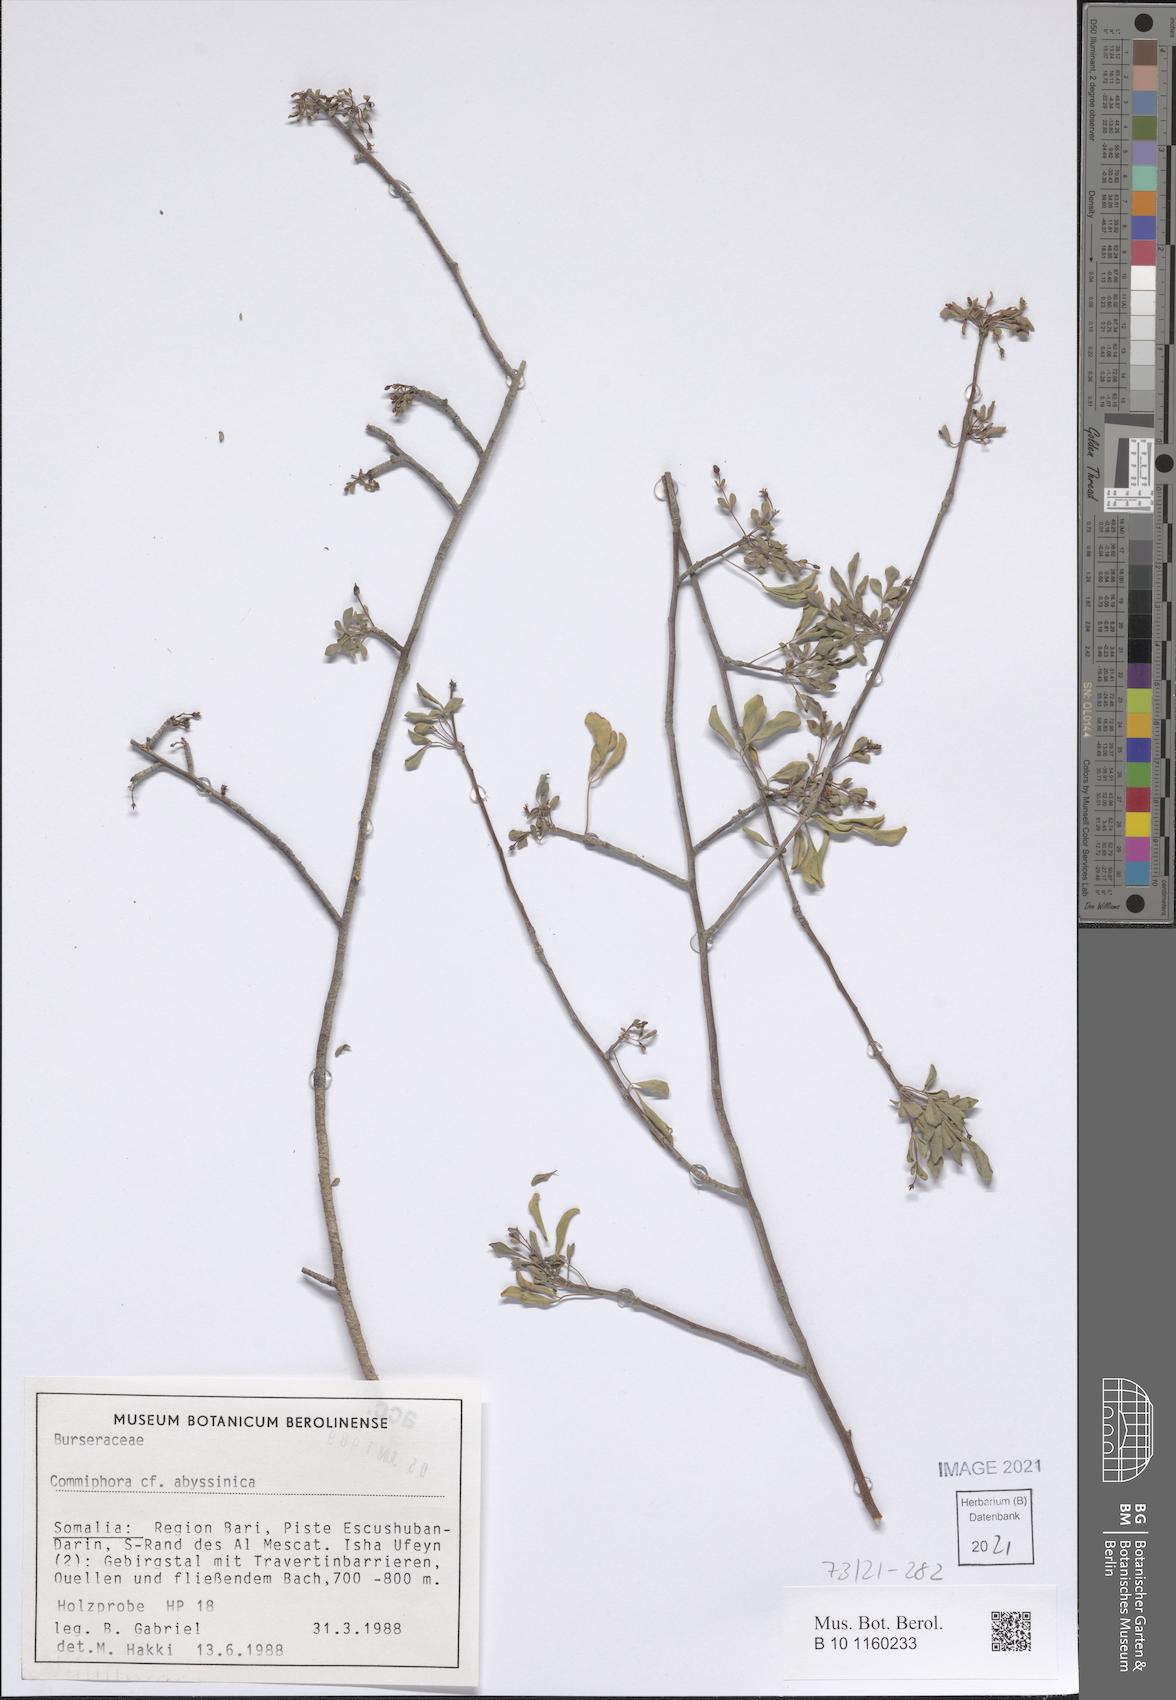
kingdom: Plantae
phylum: Tracheophyta
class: Magnoliopsida
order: Sapindales
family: Burseraceae
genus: Commiphora
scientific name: Commiphora foliacea
